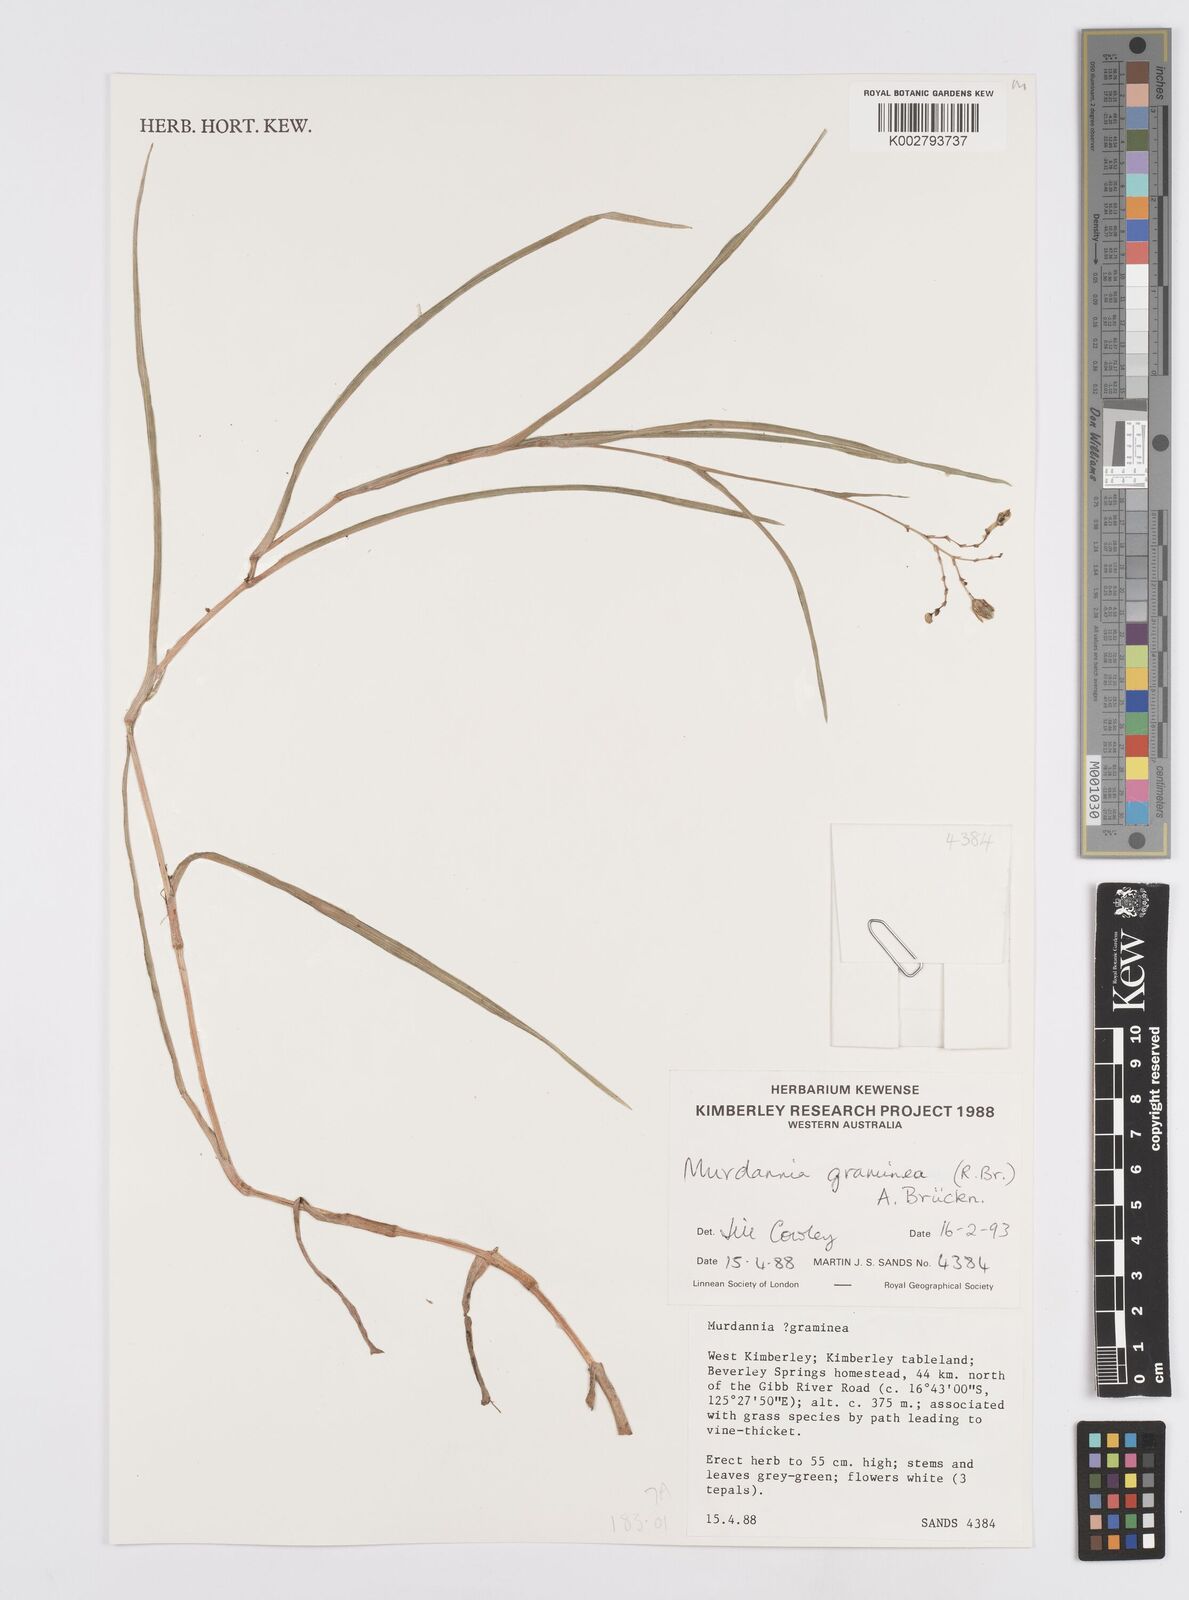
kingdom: Plantae
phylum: Tracheophyta
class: Liliopsida
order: Commelinales
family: Commelinaceae
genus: Murdannia
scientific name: Murdannia graminea
